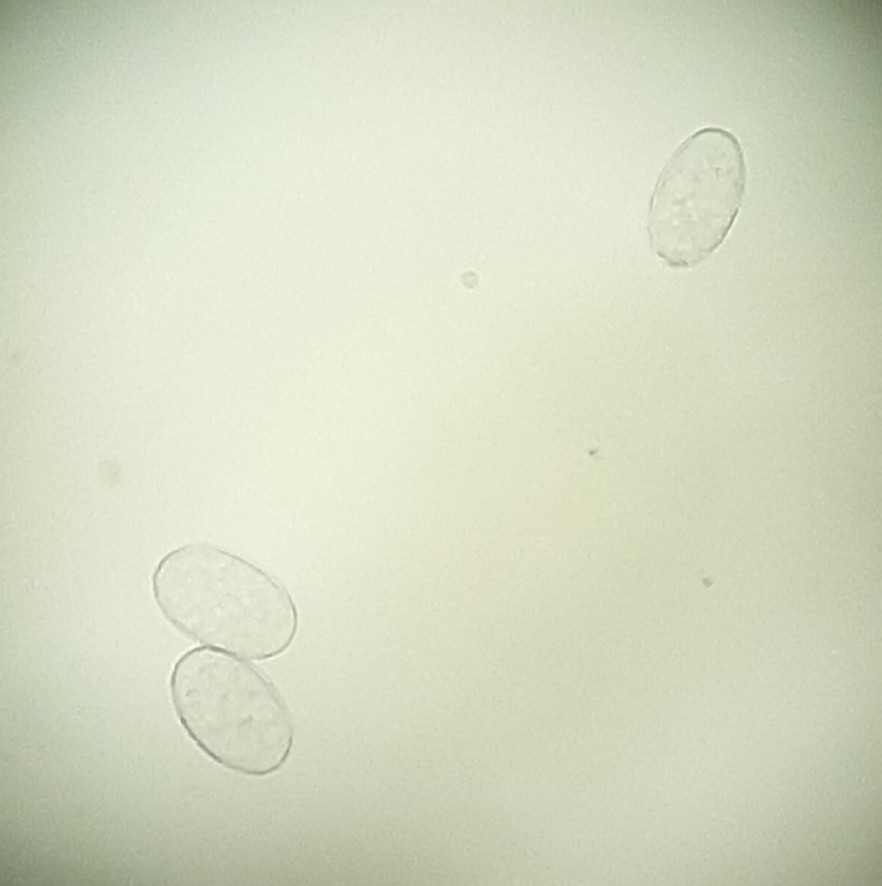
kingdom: Fungi
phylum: Ascomycota
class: Leotiomycetes
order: Helotiales
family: Erysiphaceae
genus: Erysiphe
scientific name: Erysiphe howeana
